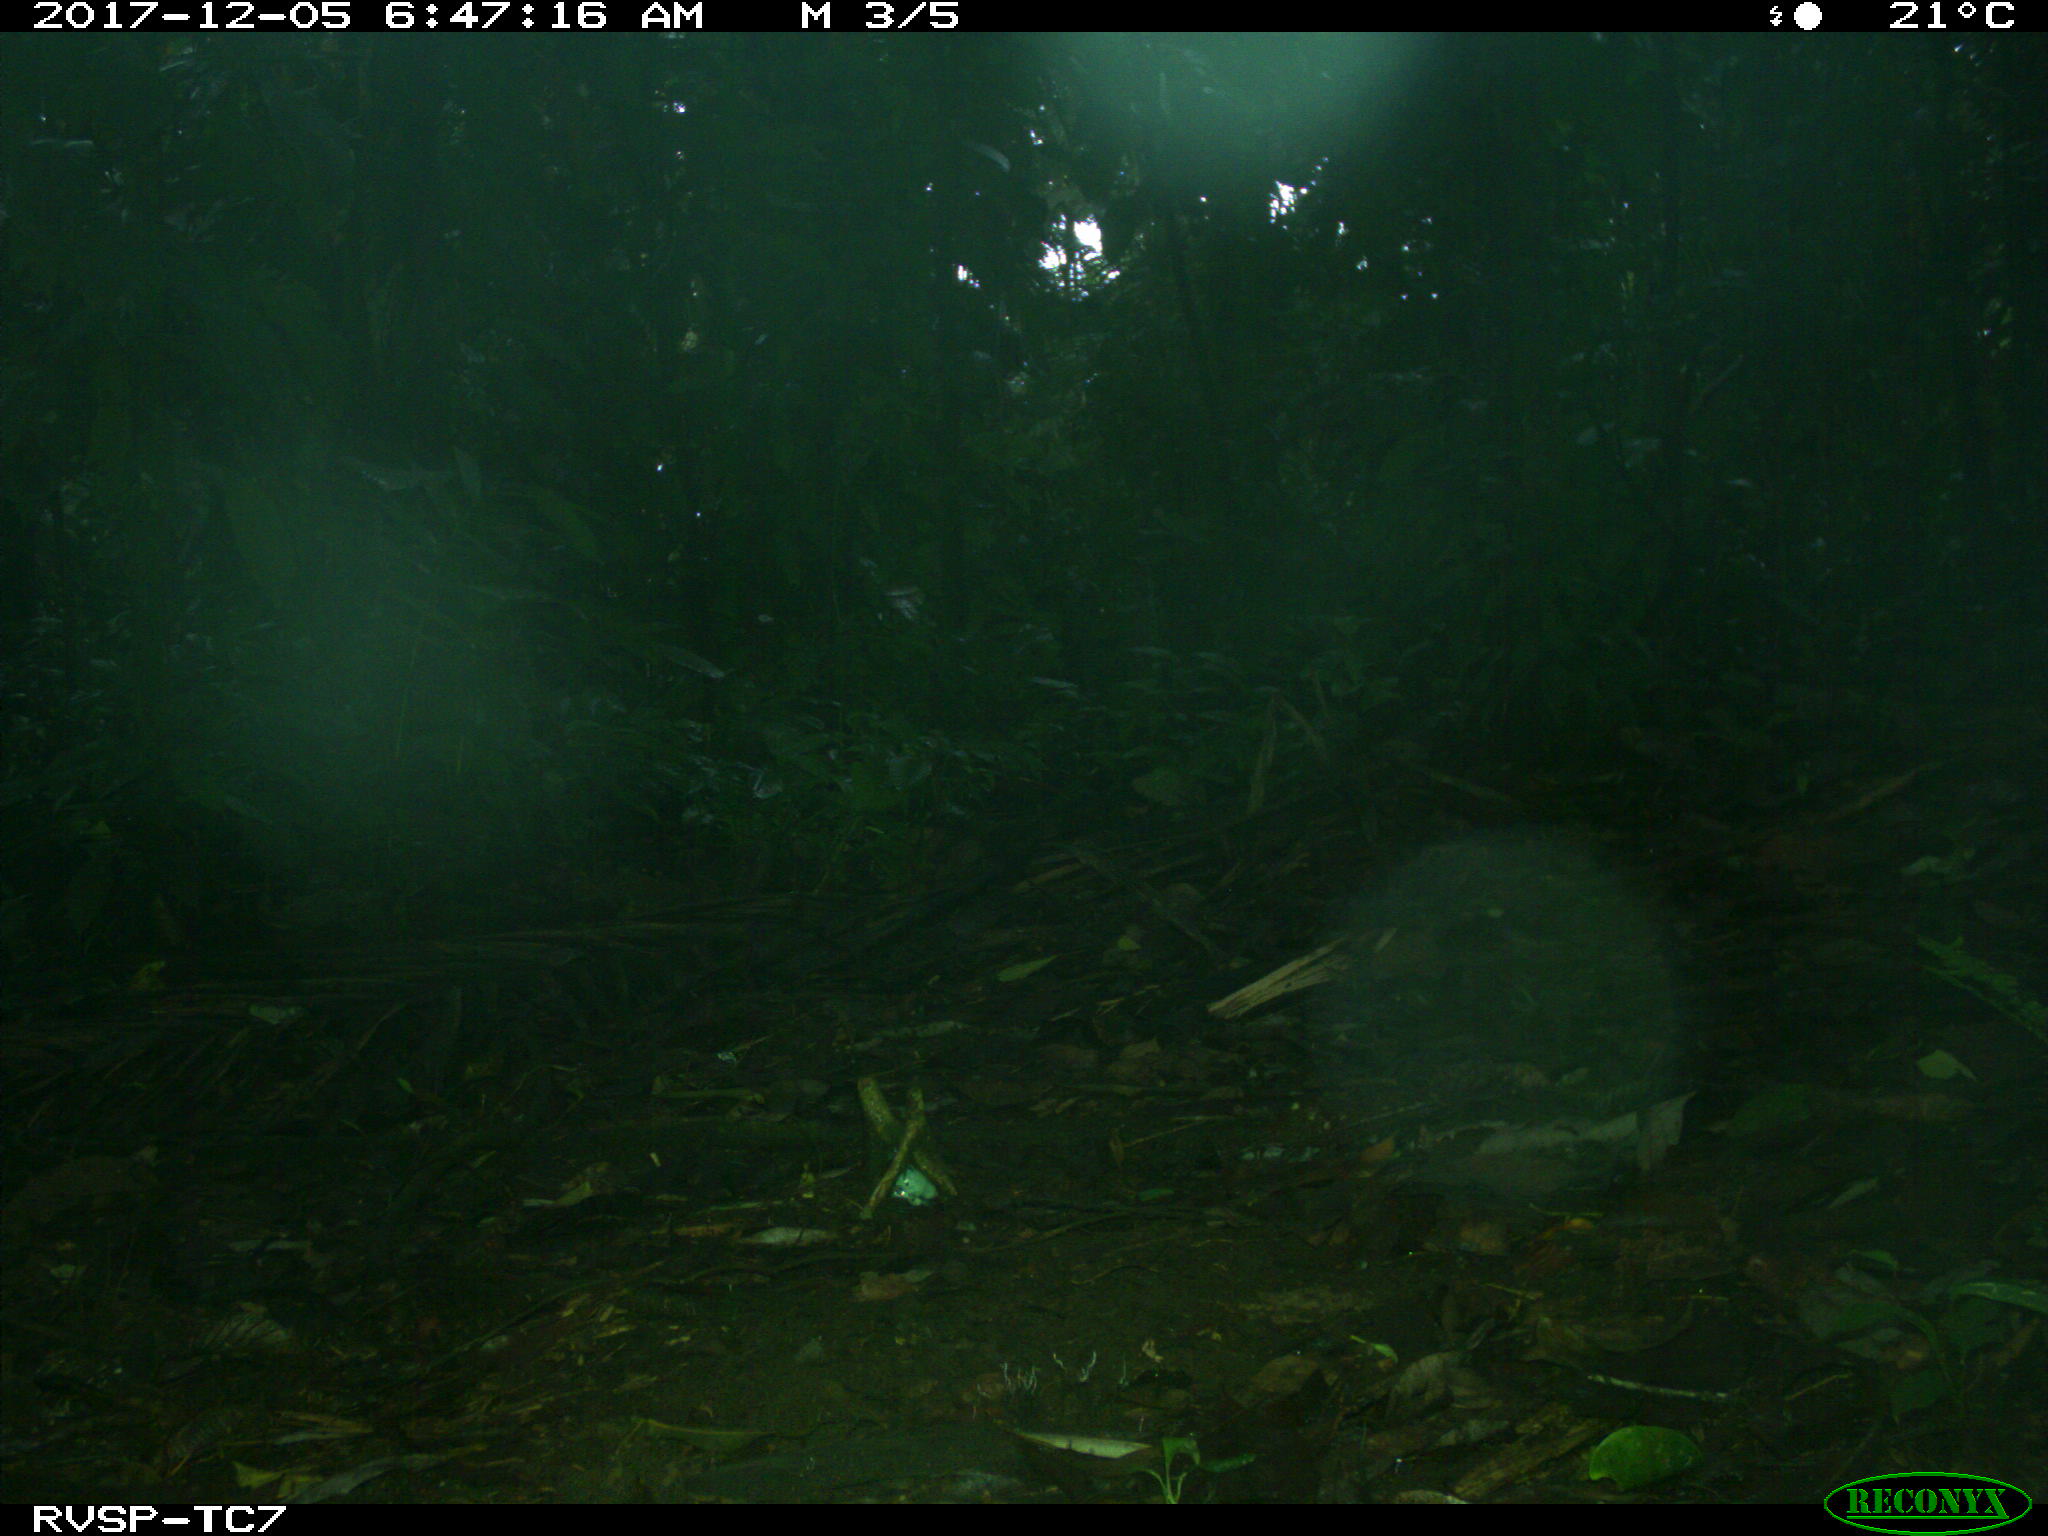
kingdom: Animalia
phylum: Chordata
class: Mammalia
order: Rodentia
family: Sciuridae
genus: Sciurus
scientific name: Sciurus granatensis
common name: Red-tailed squirrel
